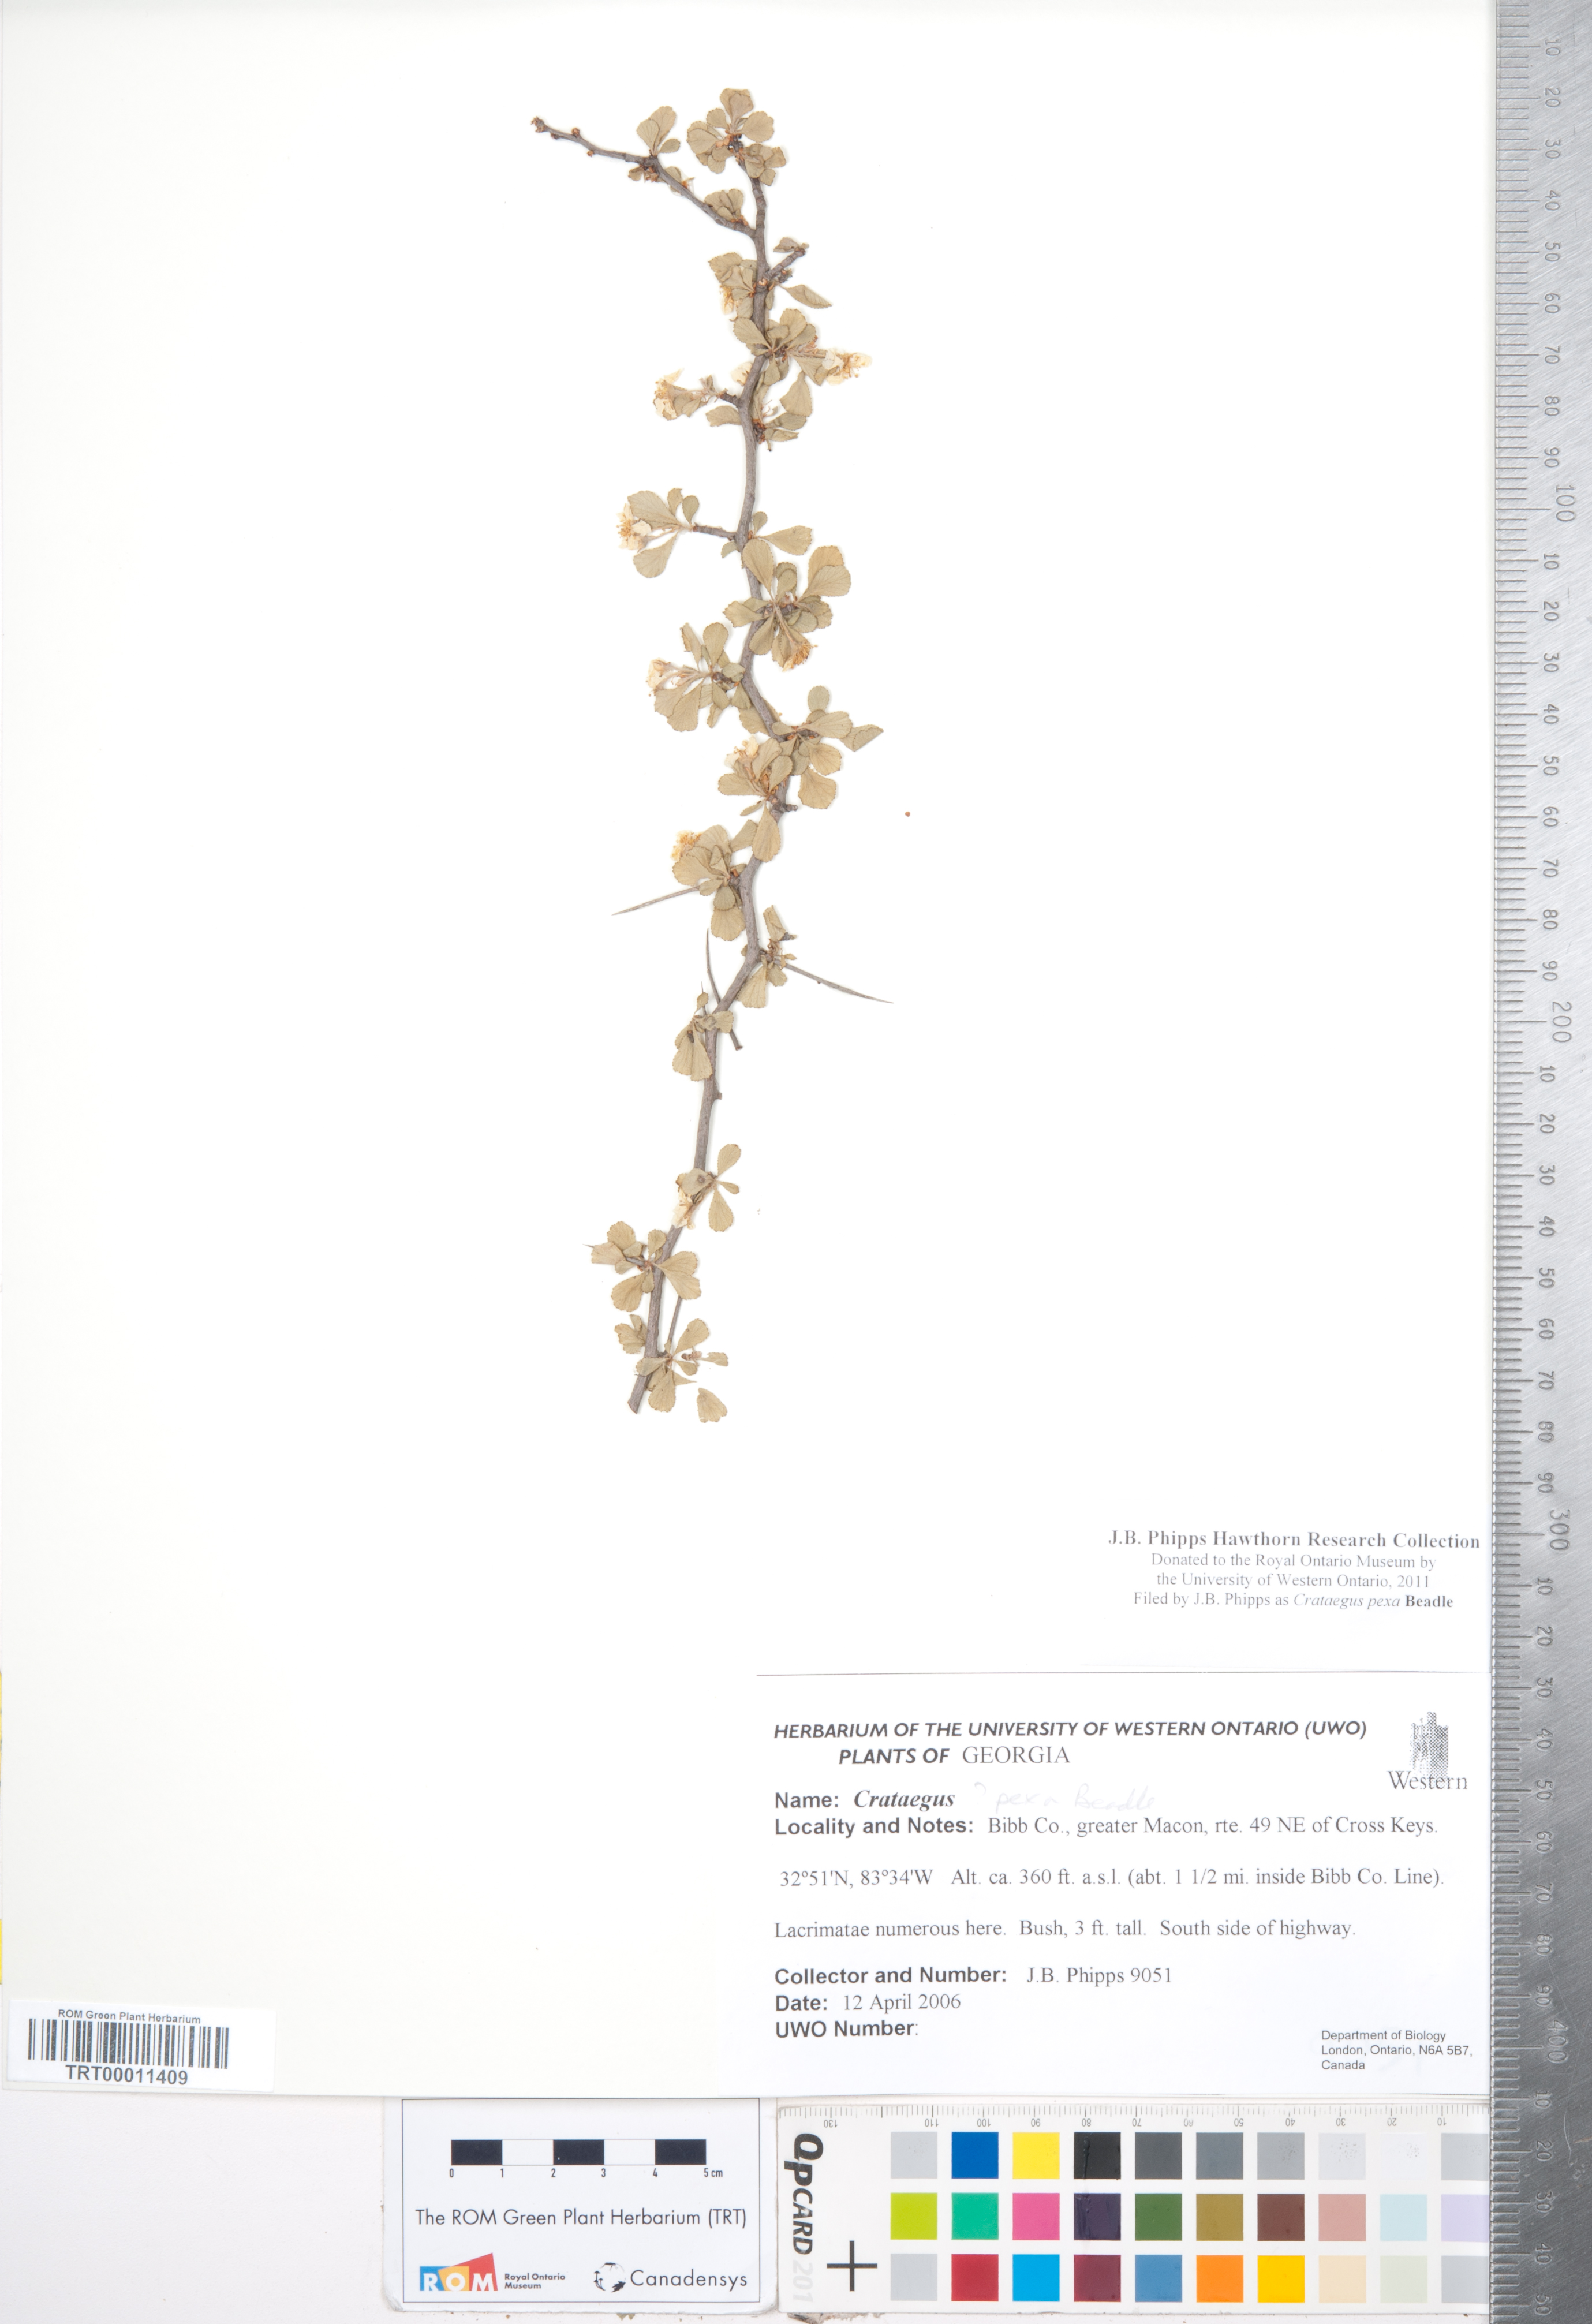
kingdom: Plantae
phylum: Tracheophyta
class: Magnoliopsida
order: Rosales
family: Rosaceae
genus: Crataegus
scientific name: Crataegus munda
